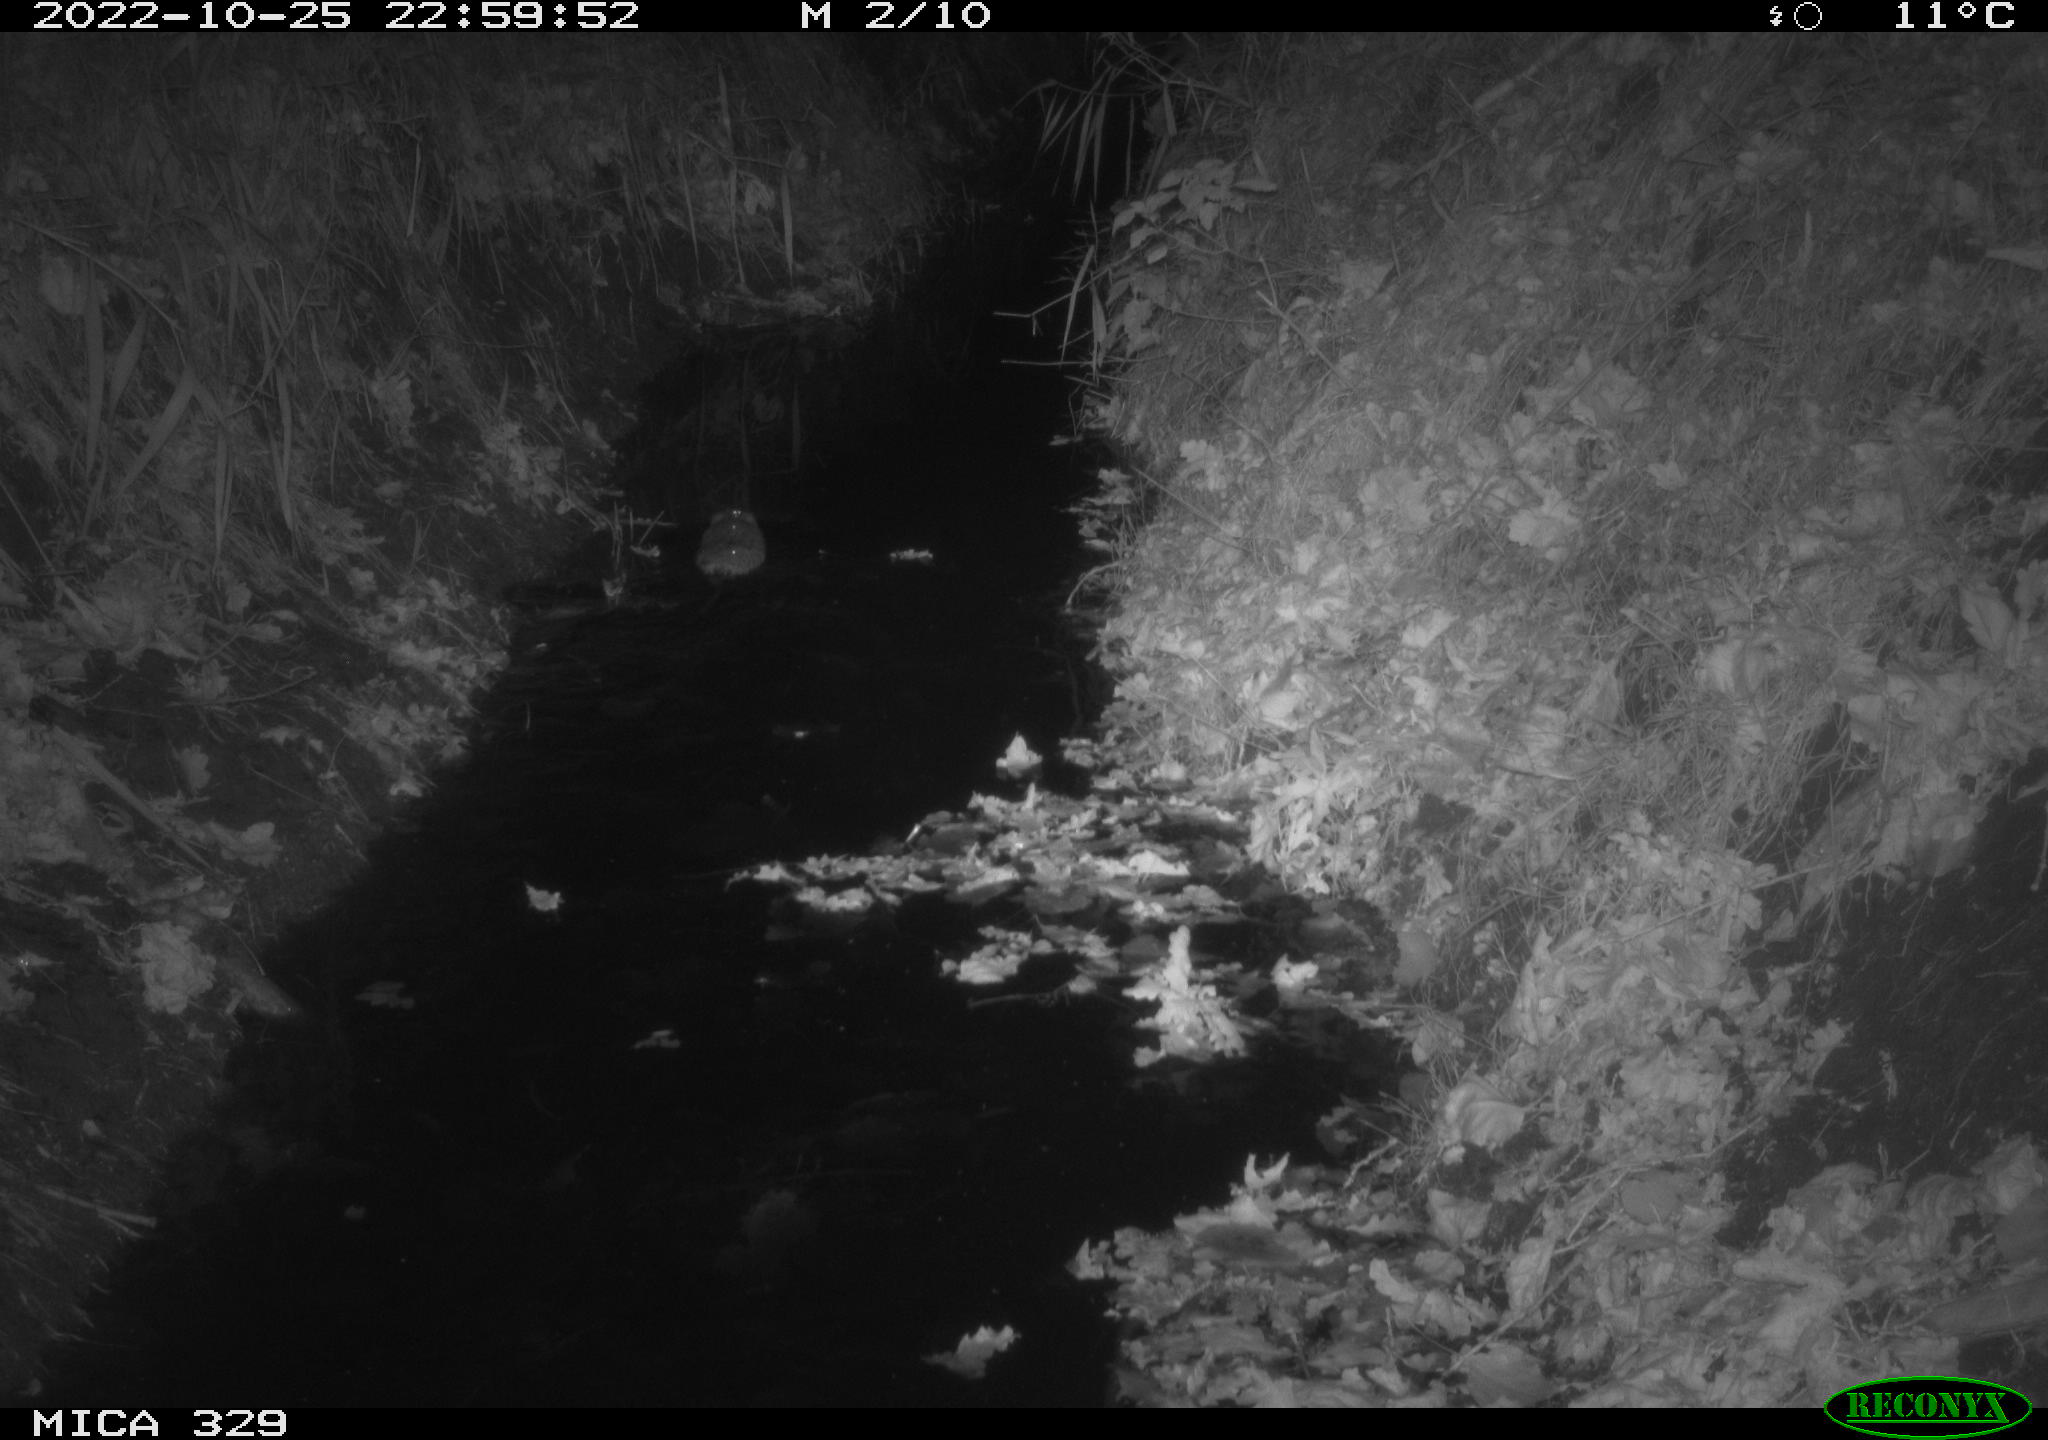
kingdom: Animalia
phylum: Chordata
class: Mammalia
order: Rodentia
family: Cricetidae
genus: Ondatra
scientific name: Ondatra zibethicus
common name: Muskrat
